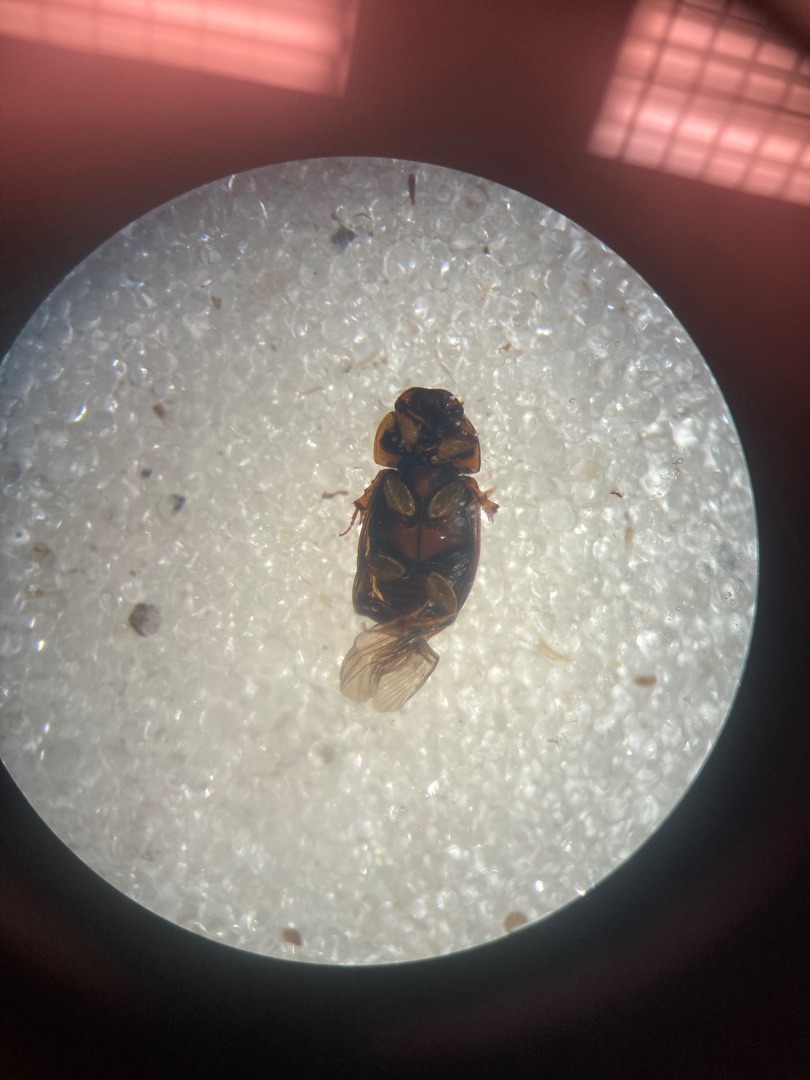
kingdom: Animalia
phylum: Arthropoda
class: Insecta
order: Coleoptera
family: Scarabaeidae
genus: Volinus
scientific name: Volinus sticticus
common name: Skovmøgbille
